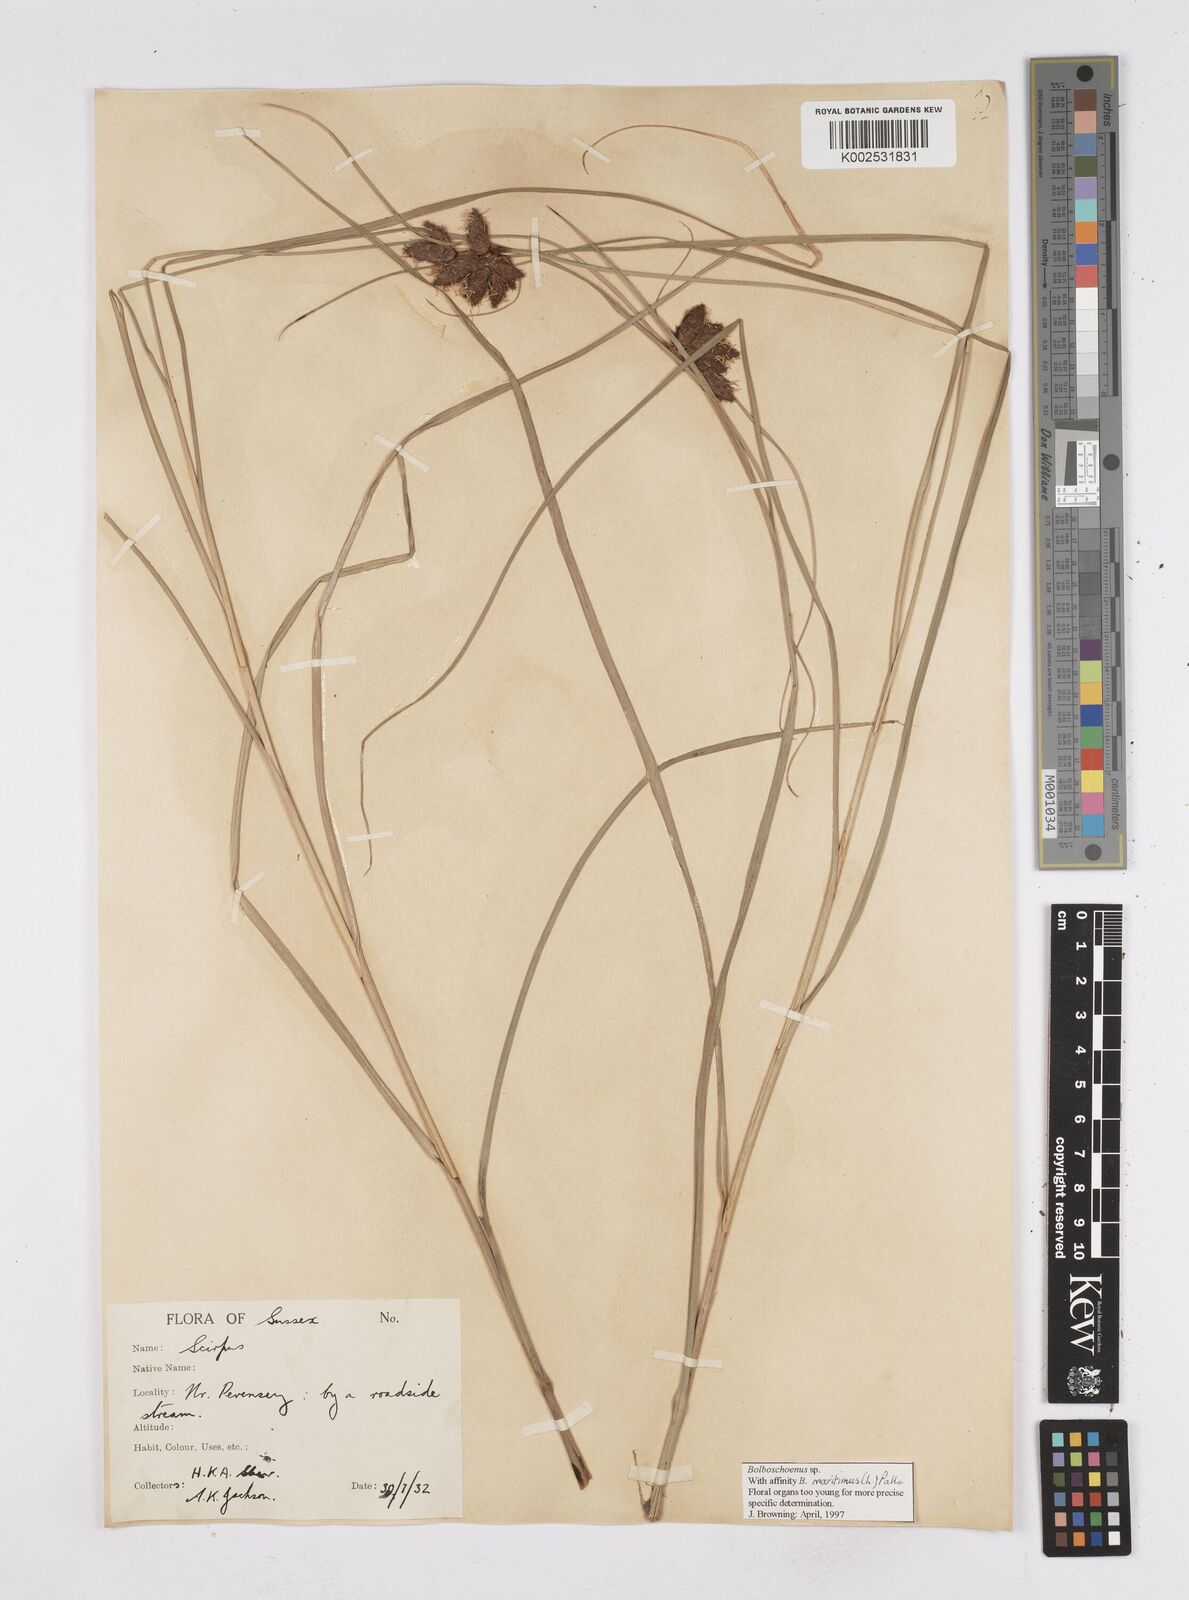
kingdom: Plantae
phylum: Tracheophyta
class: Liliopsida
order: Poales
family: Cyperaceae
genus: Bolboschoenus
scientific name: Bolboschoenus maritimus
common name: Sea club-rush
